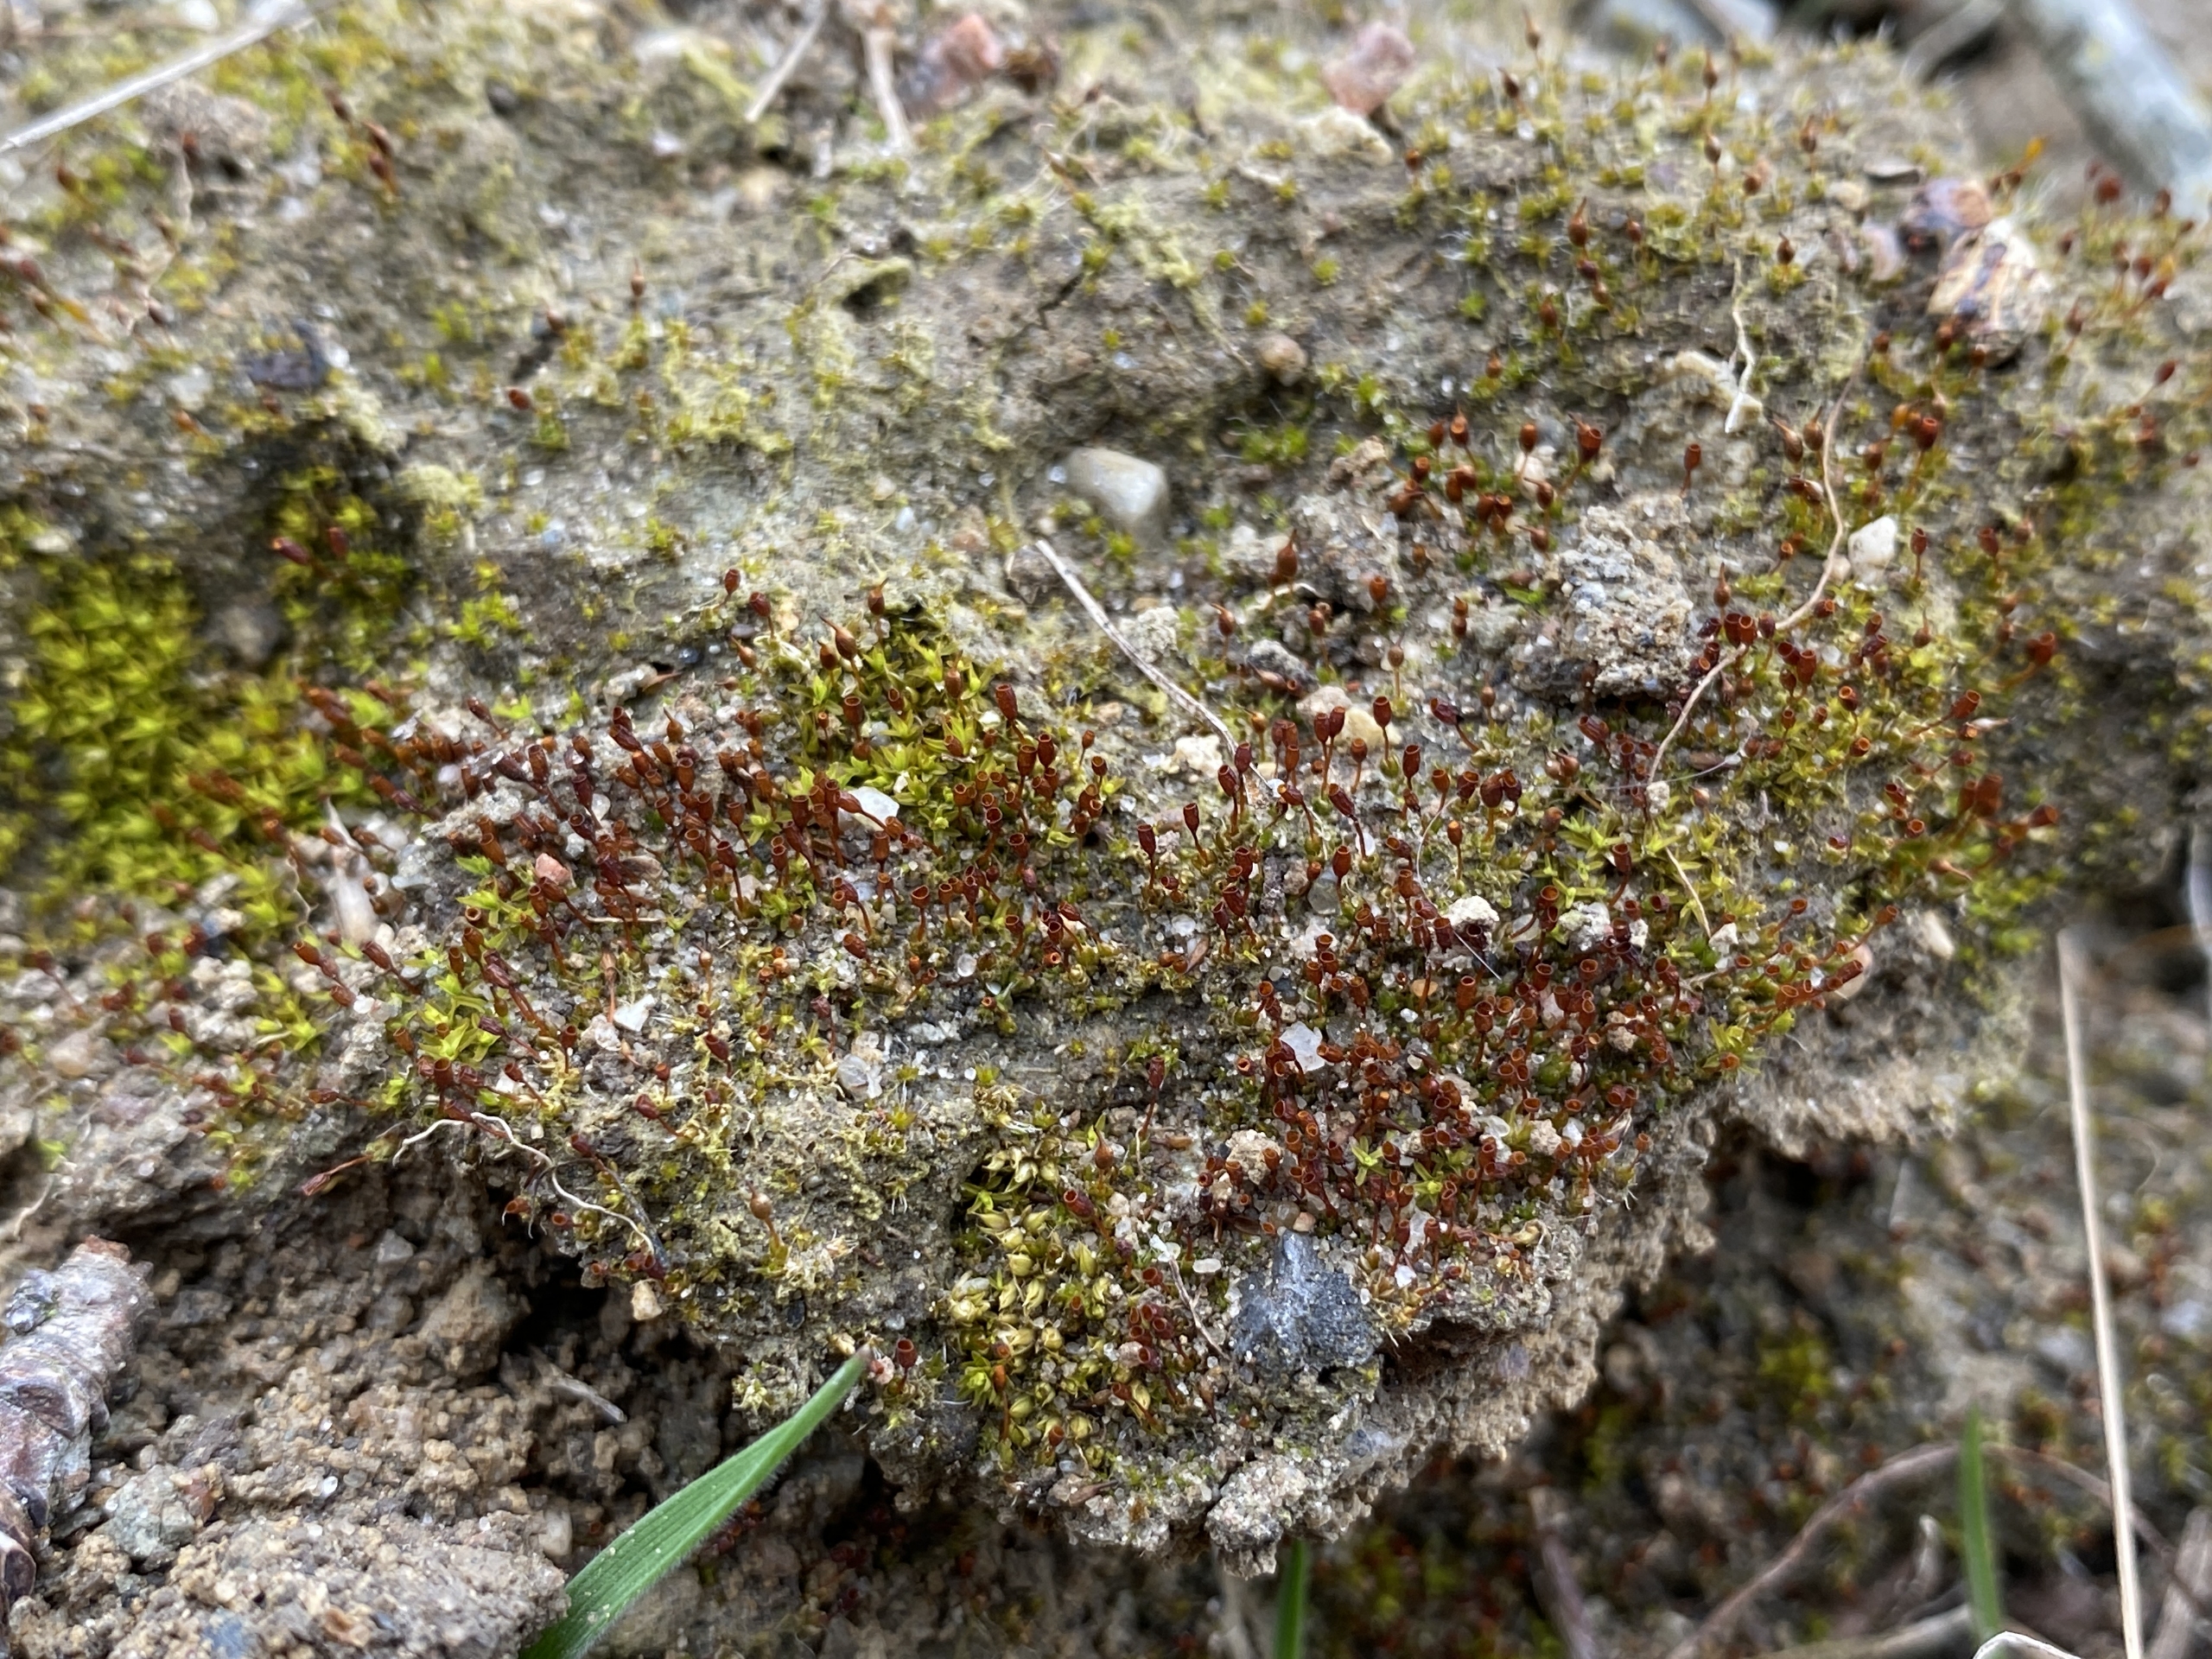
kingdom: Plantae
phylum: Bryophyta
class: Bryopsida
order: Pottiales
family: Pottiaceae
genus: Pterygoneurum
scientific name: Pterygoneurum ovatum
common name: Langhåret vingenerve
